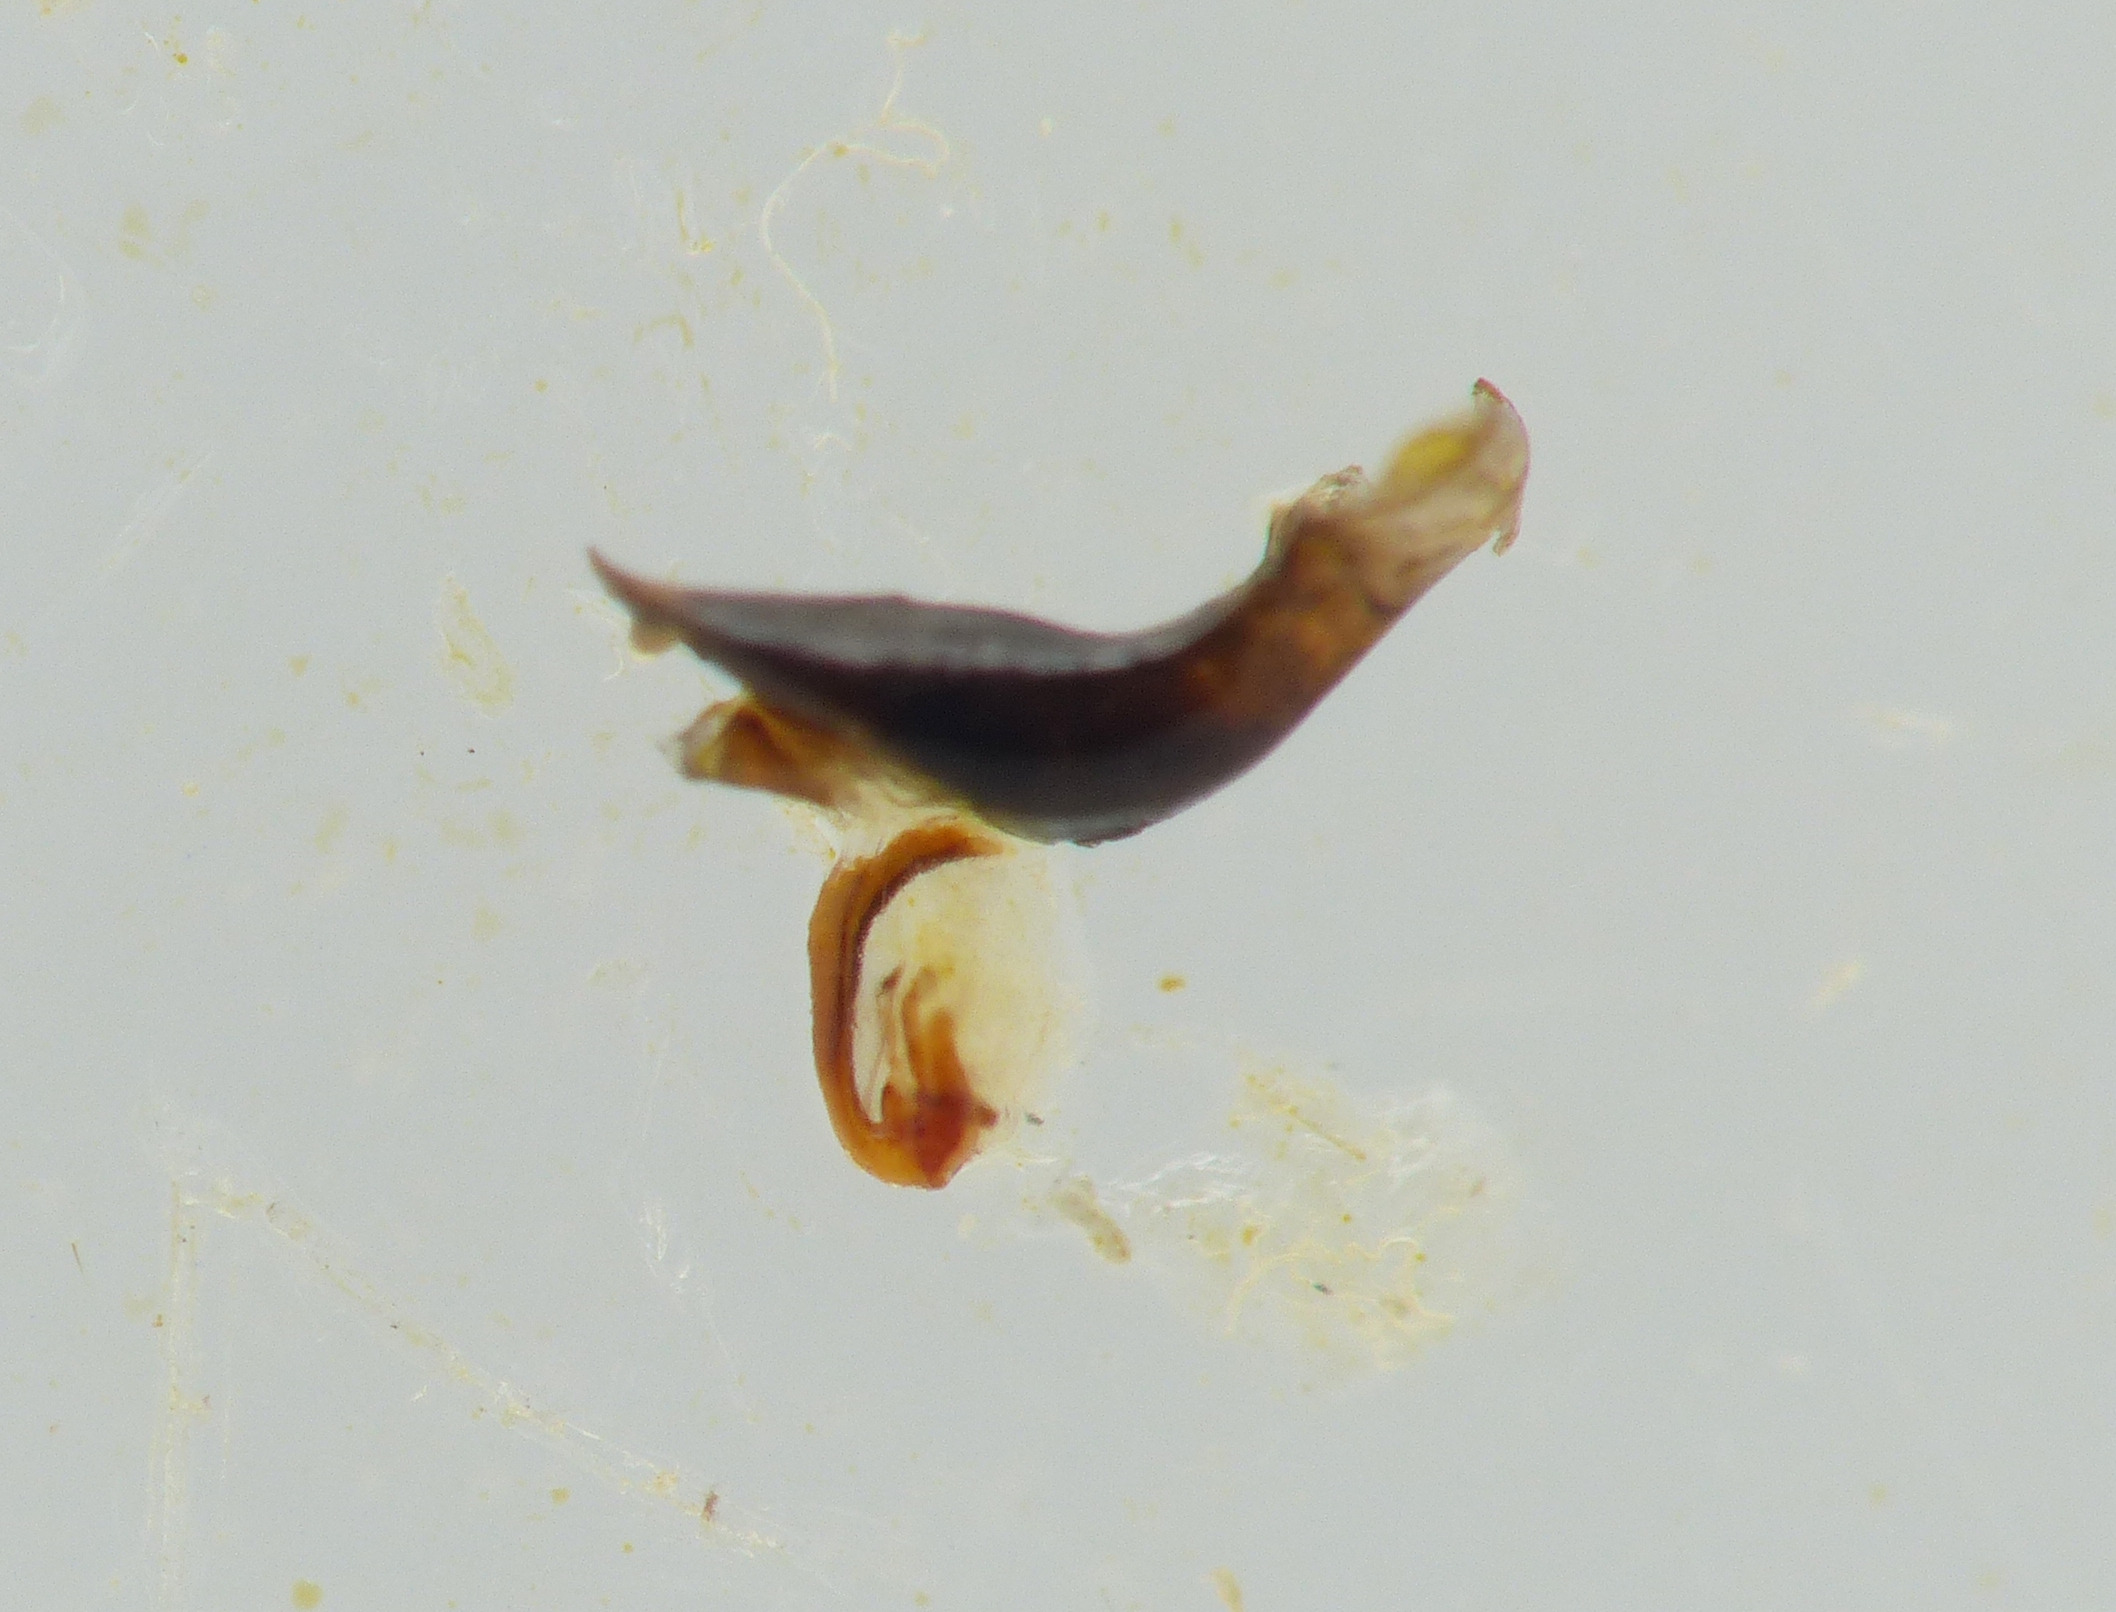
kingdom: Animalia
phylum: Arthropoda
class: Insecta
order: Coleoptera
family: Chrysomelidae
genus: Oulema
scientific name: Oulema melanopus
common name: Kornbladbille
